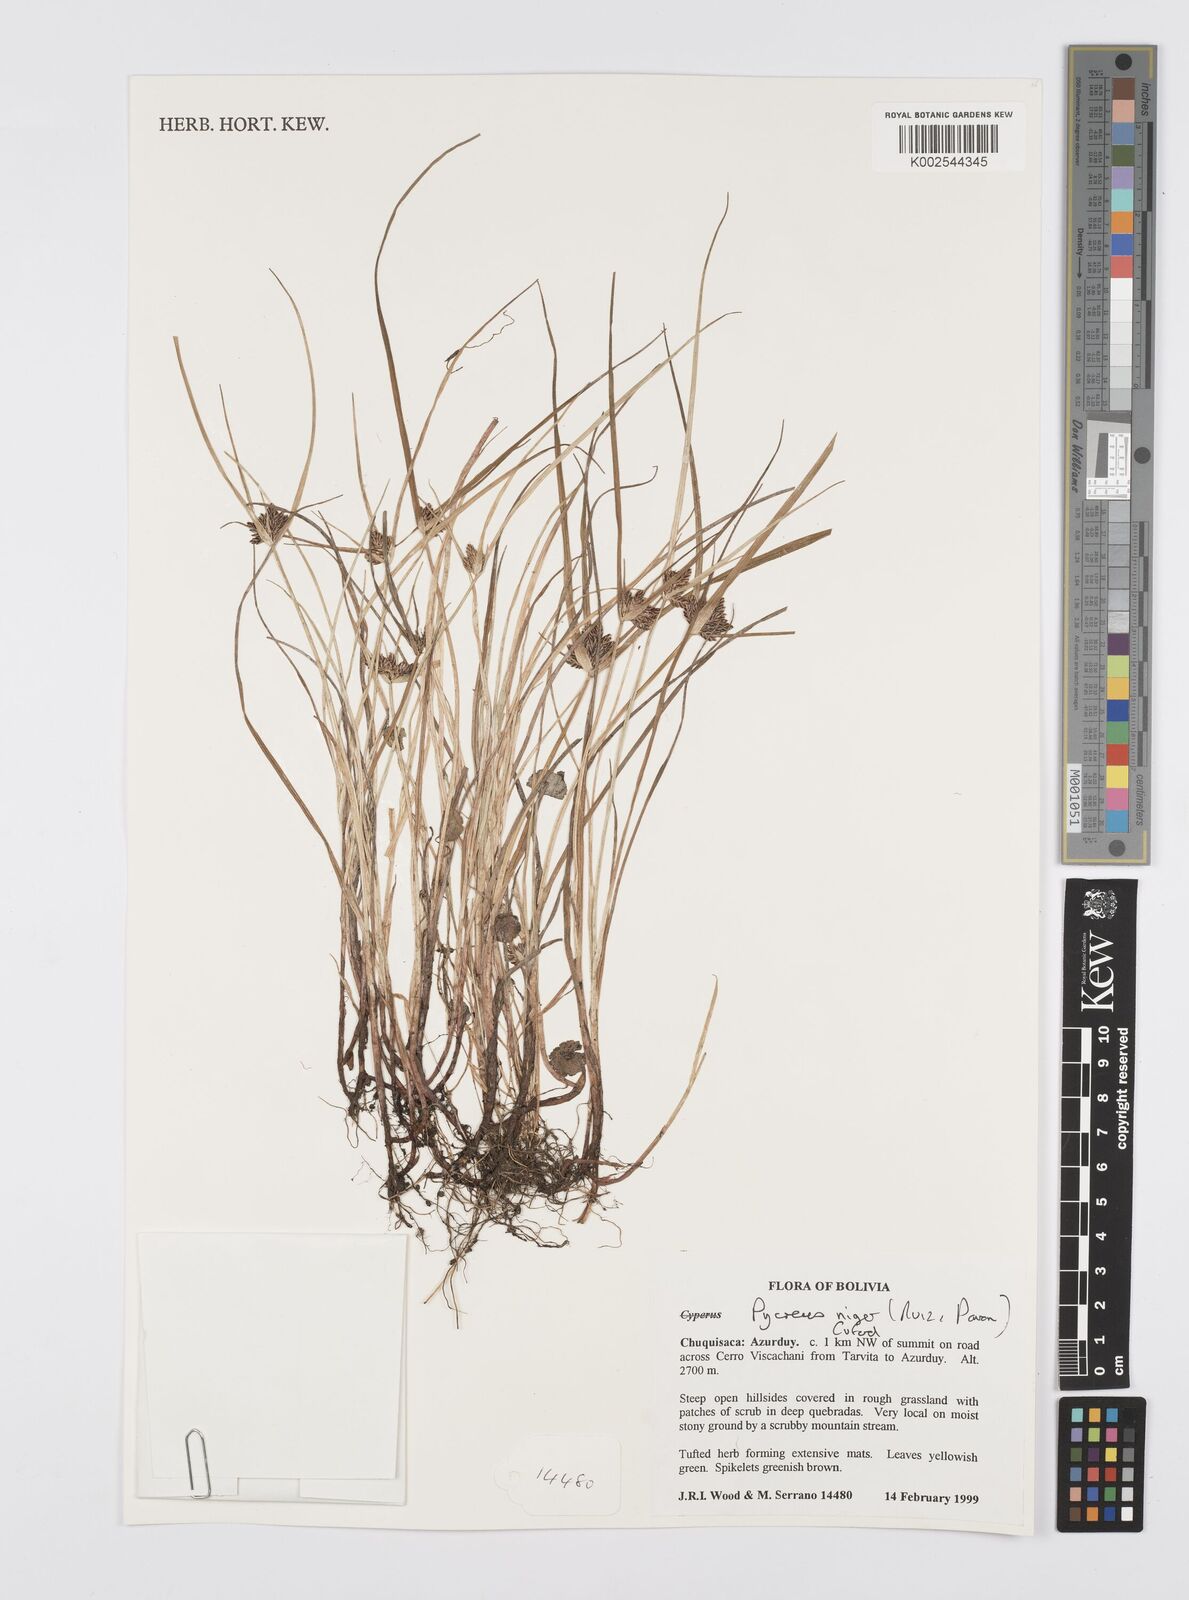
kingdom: Plantae
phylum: Tracheophyta
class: Liliopsida
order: Poales
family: Cyperaceae
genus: Cyperus
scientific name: Cyperus melanostachyus
